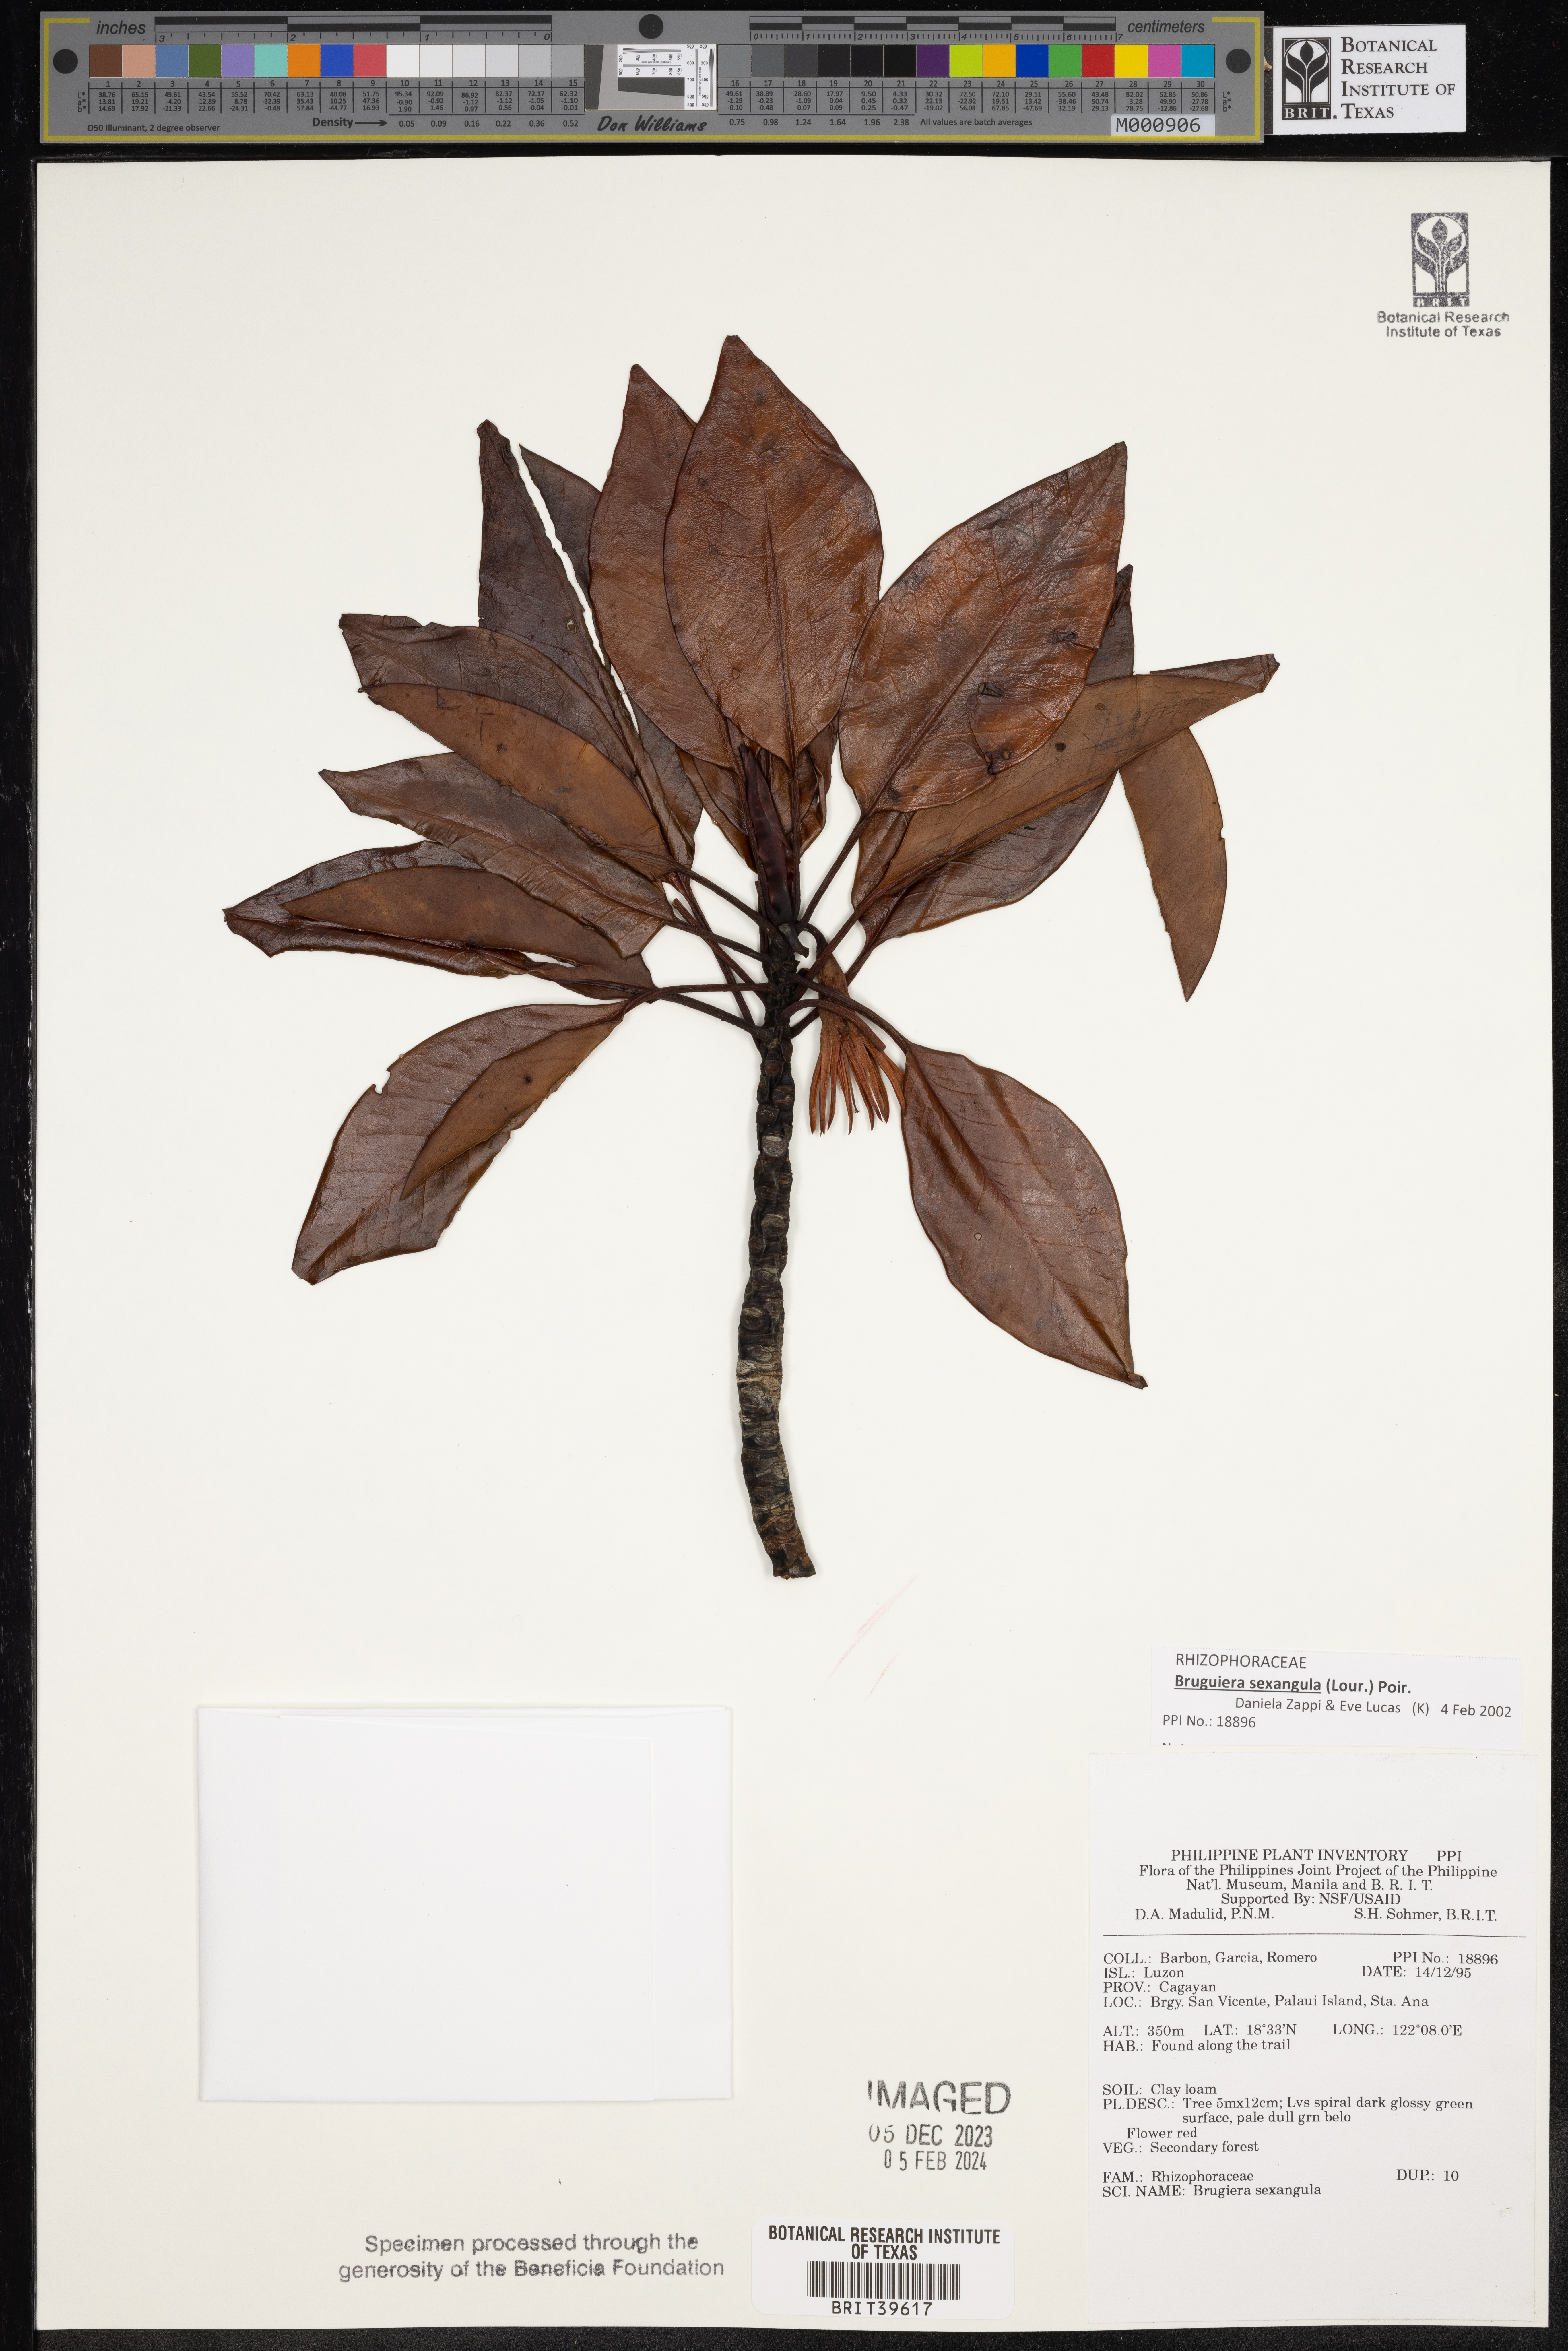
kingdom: Plantae
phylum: Tracheophyta
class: Magnoliopsida
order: Malpighiales
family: Rhizophoraceae
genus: Bruguiera
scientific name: Bruguiera sexangula
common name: Oriental mangrove
